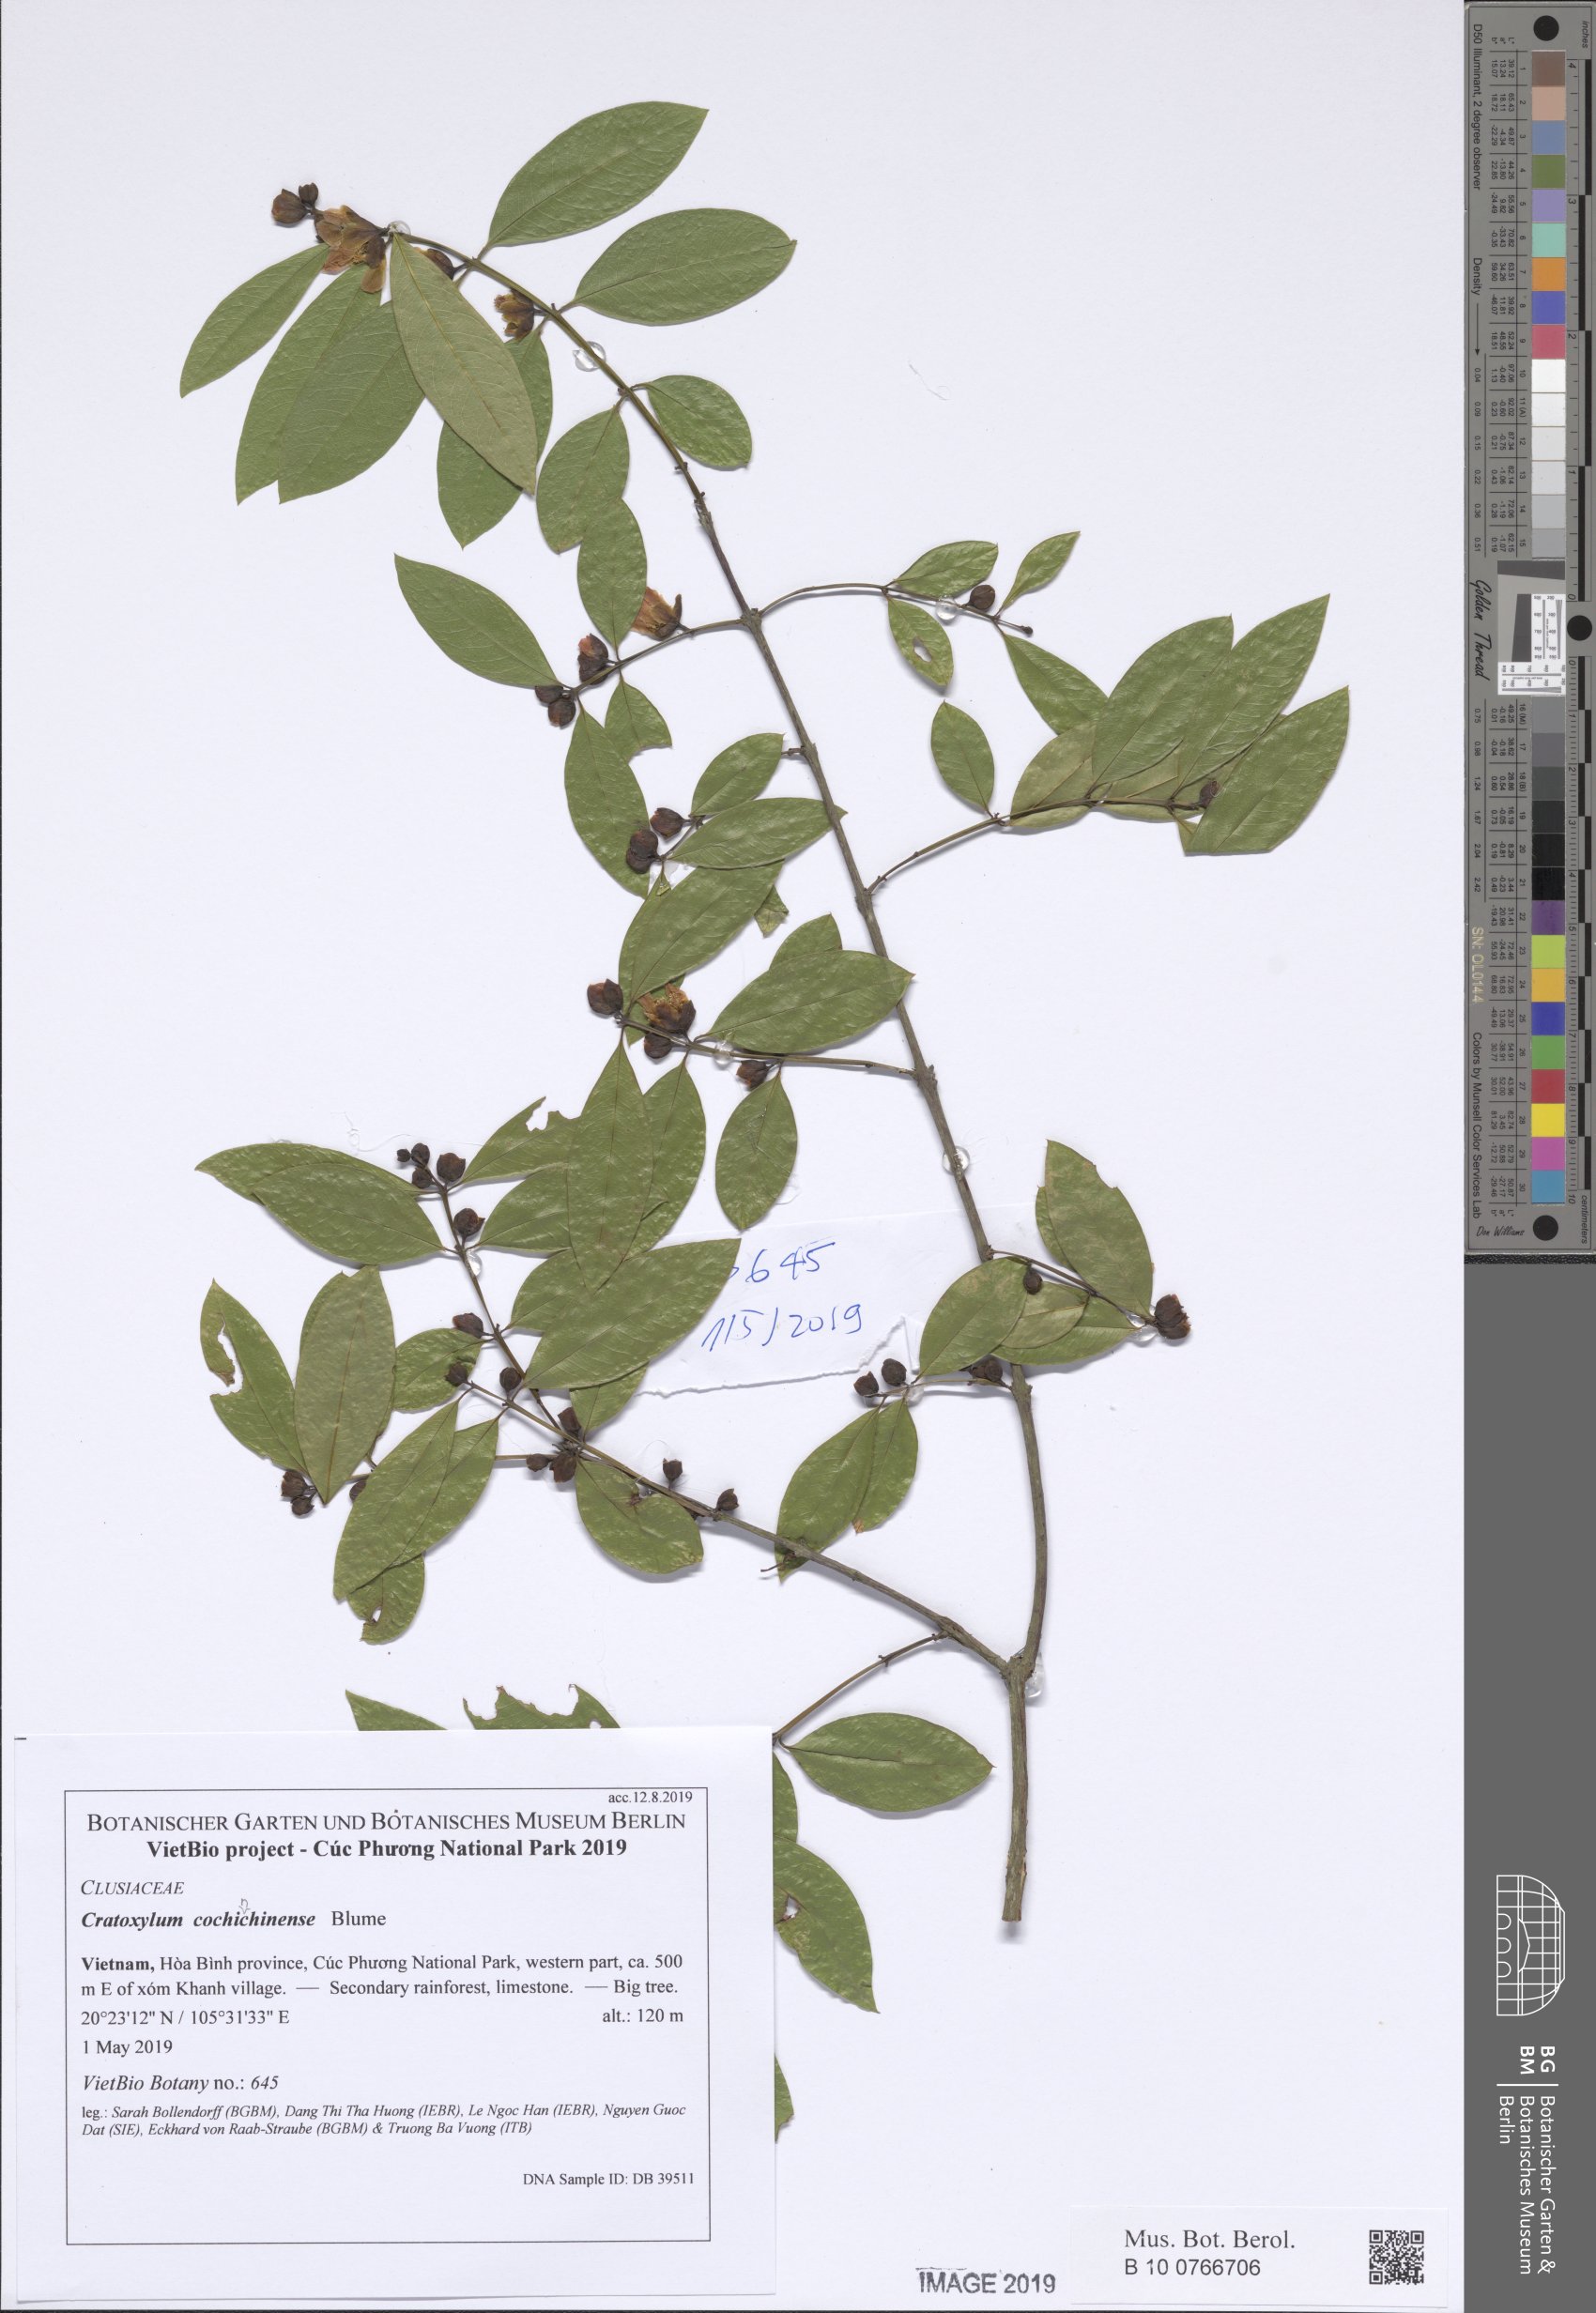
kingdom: Plantae
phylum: Tracheophyta
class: Magnoliopsida
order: Malpighiales
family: Hypericaceae
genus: Cratoxylum
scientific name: Cratoxylum cochinchinense
